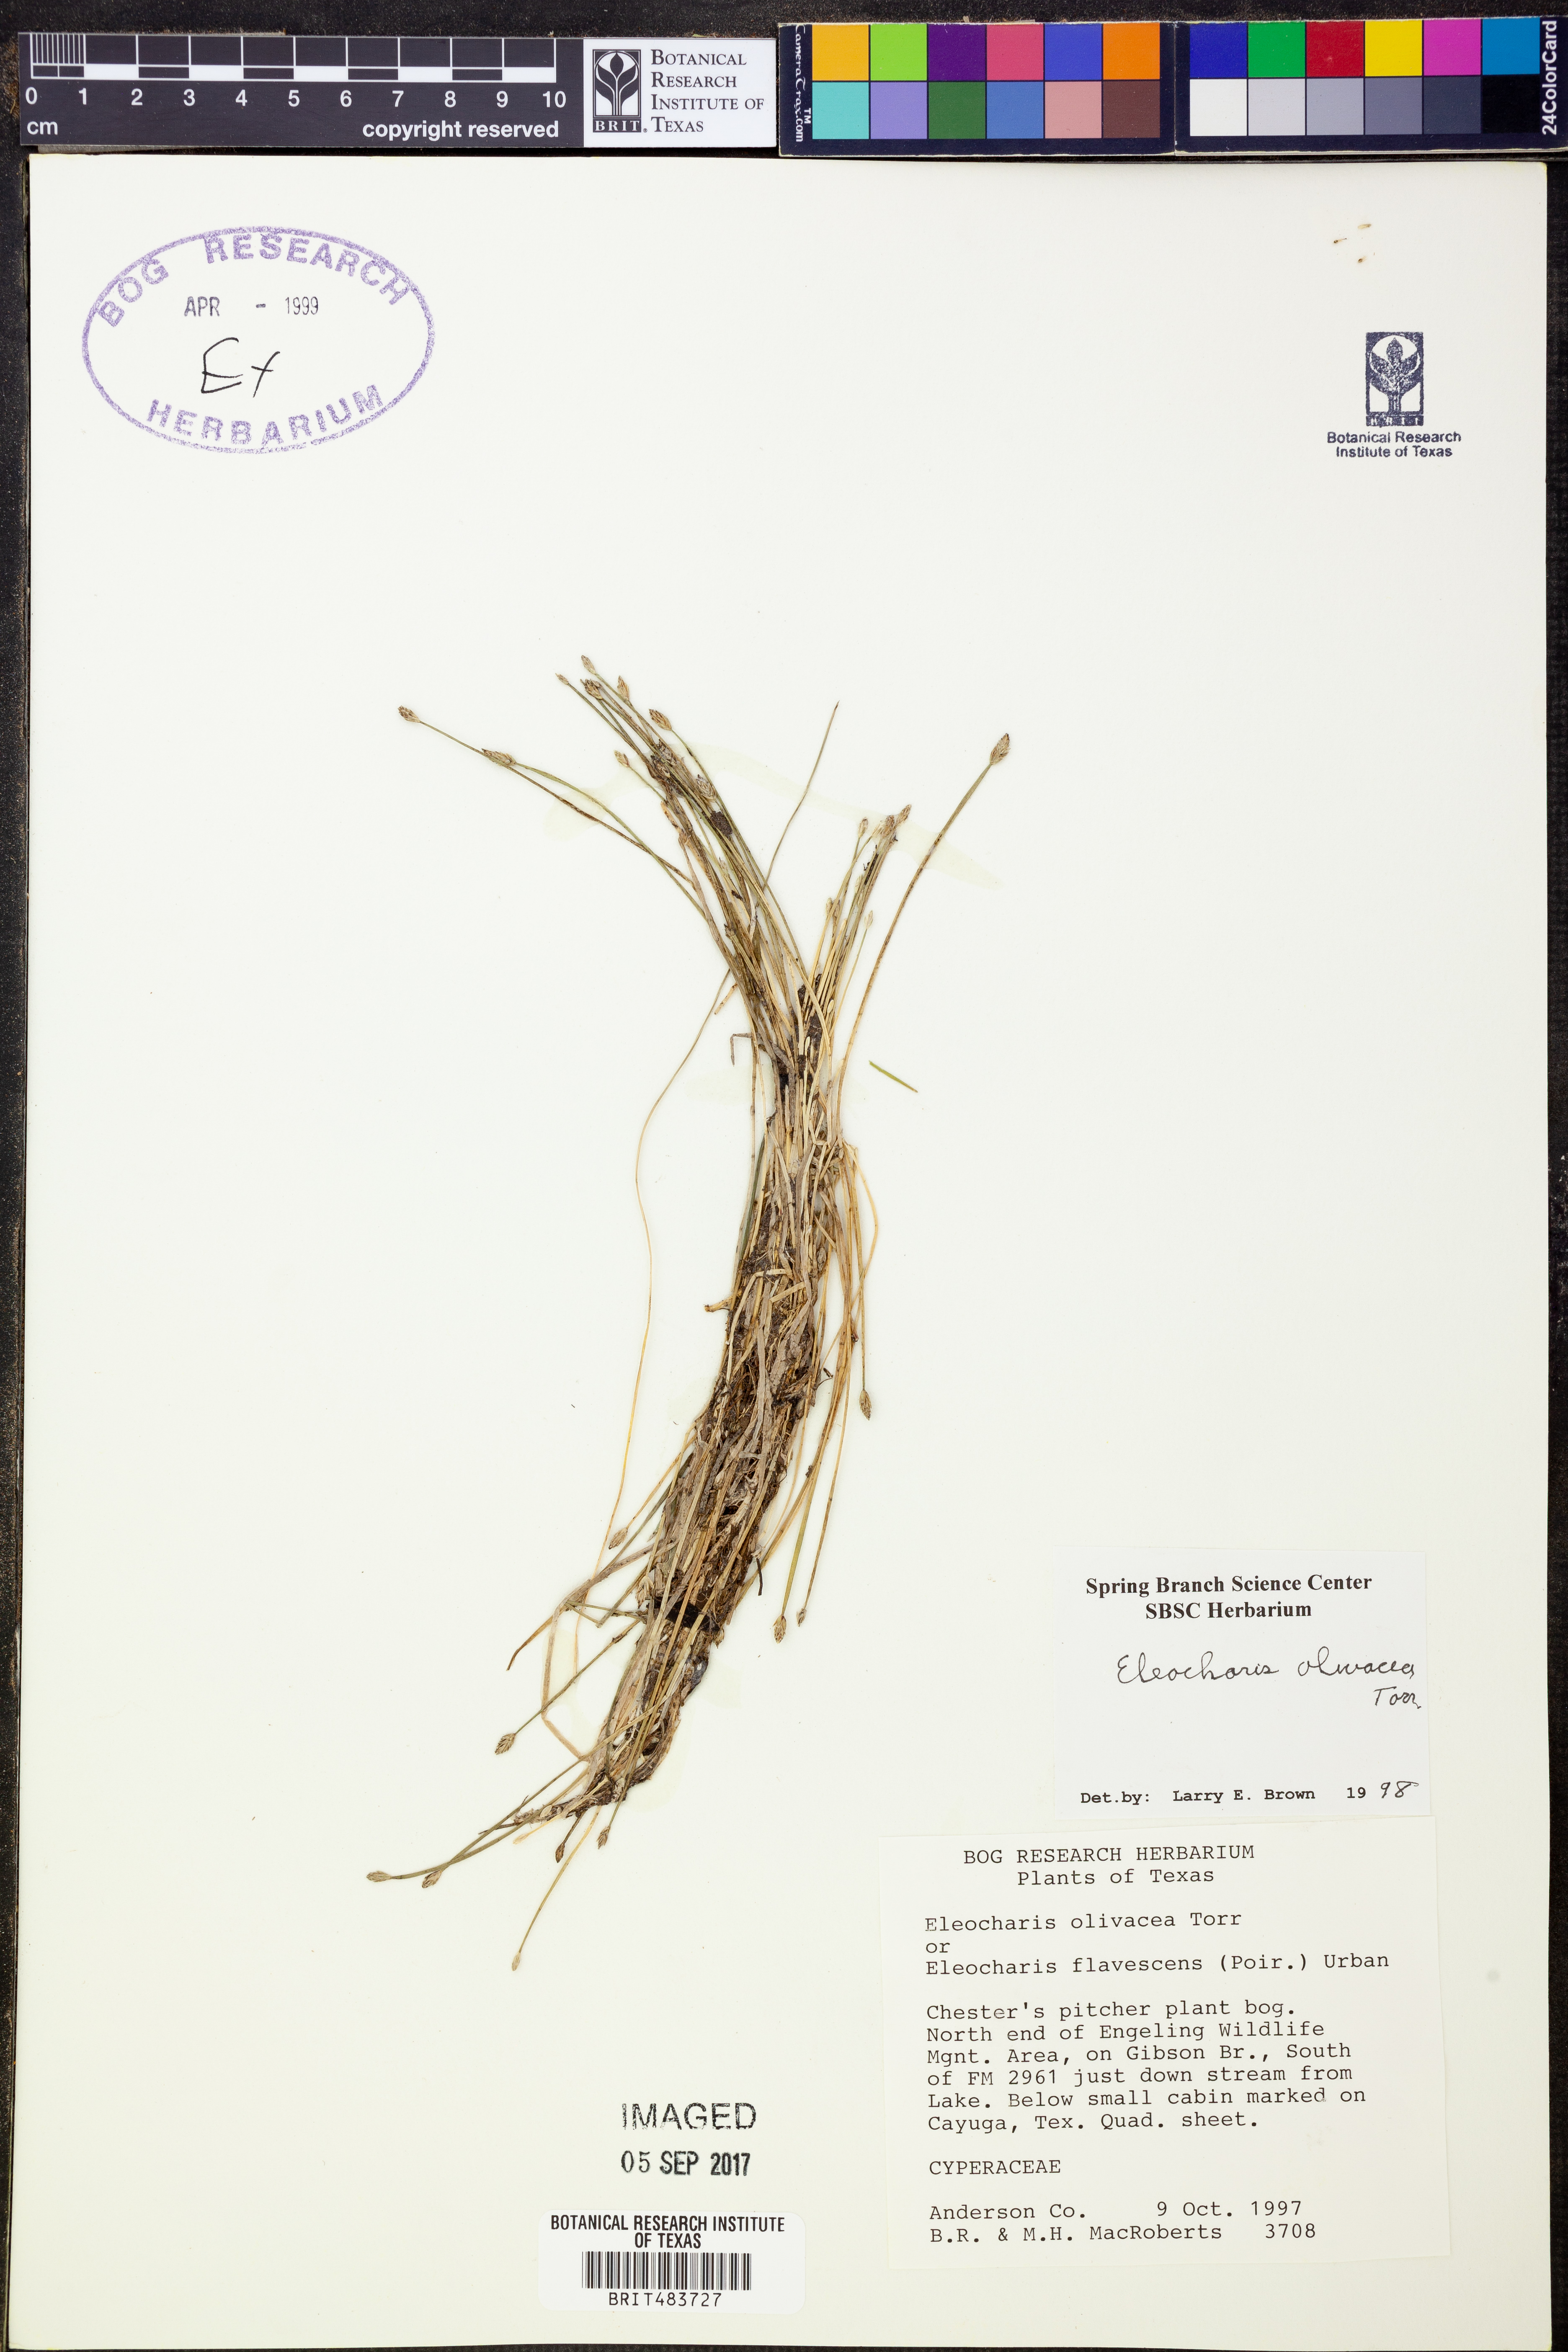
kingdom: Plantae
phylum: Tracheophyta
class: Liliopsida
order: Poales
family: Cyperaceae
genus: Eleocharis
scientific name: Eleocharis flavescens
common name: Yellow spikerush
